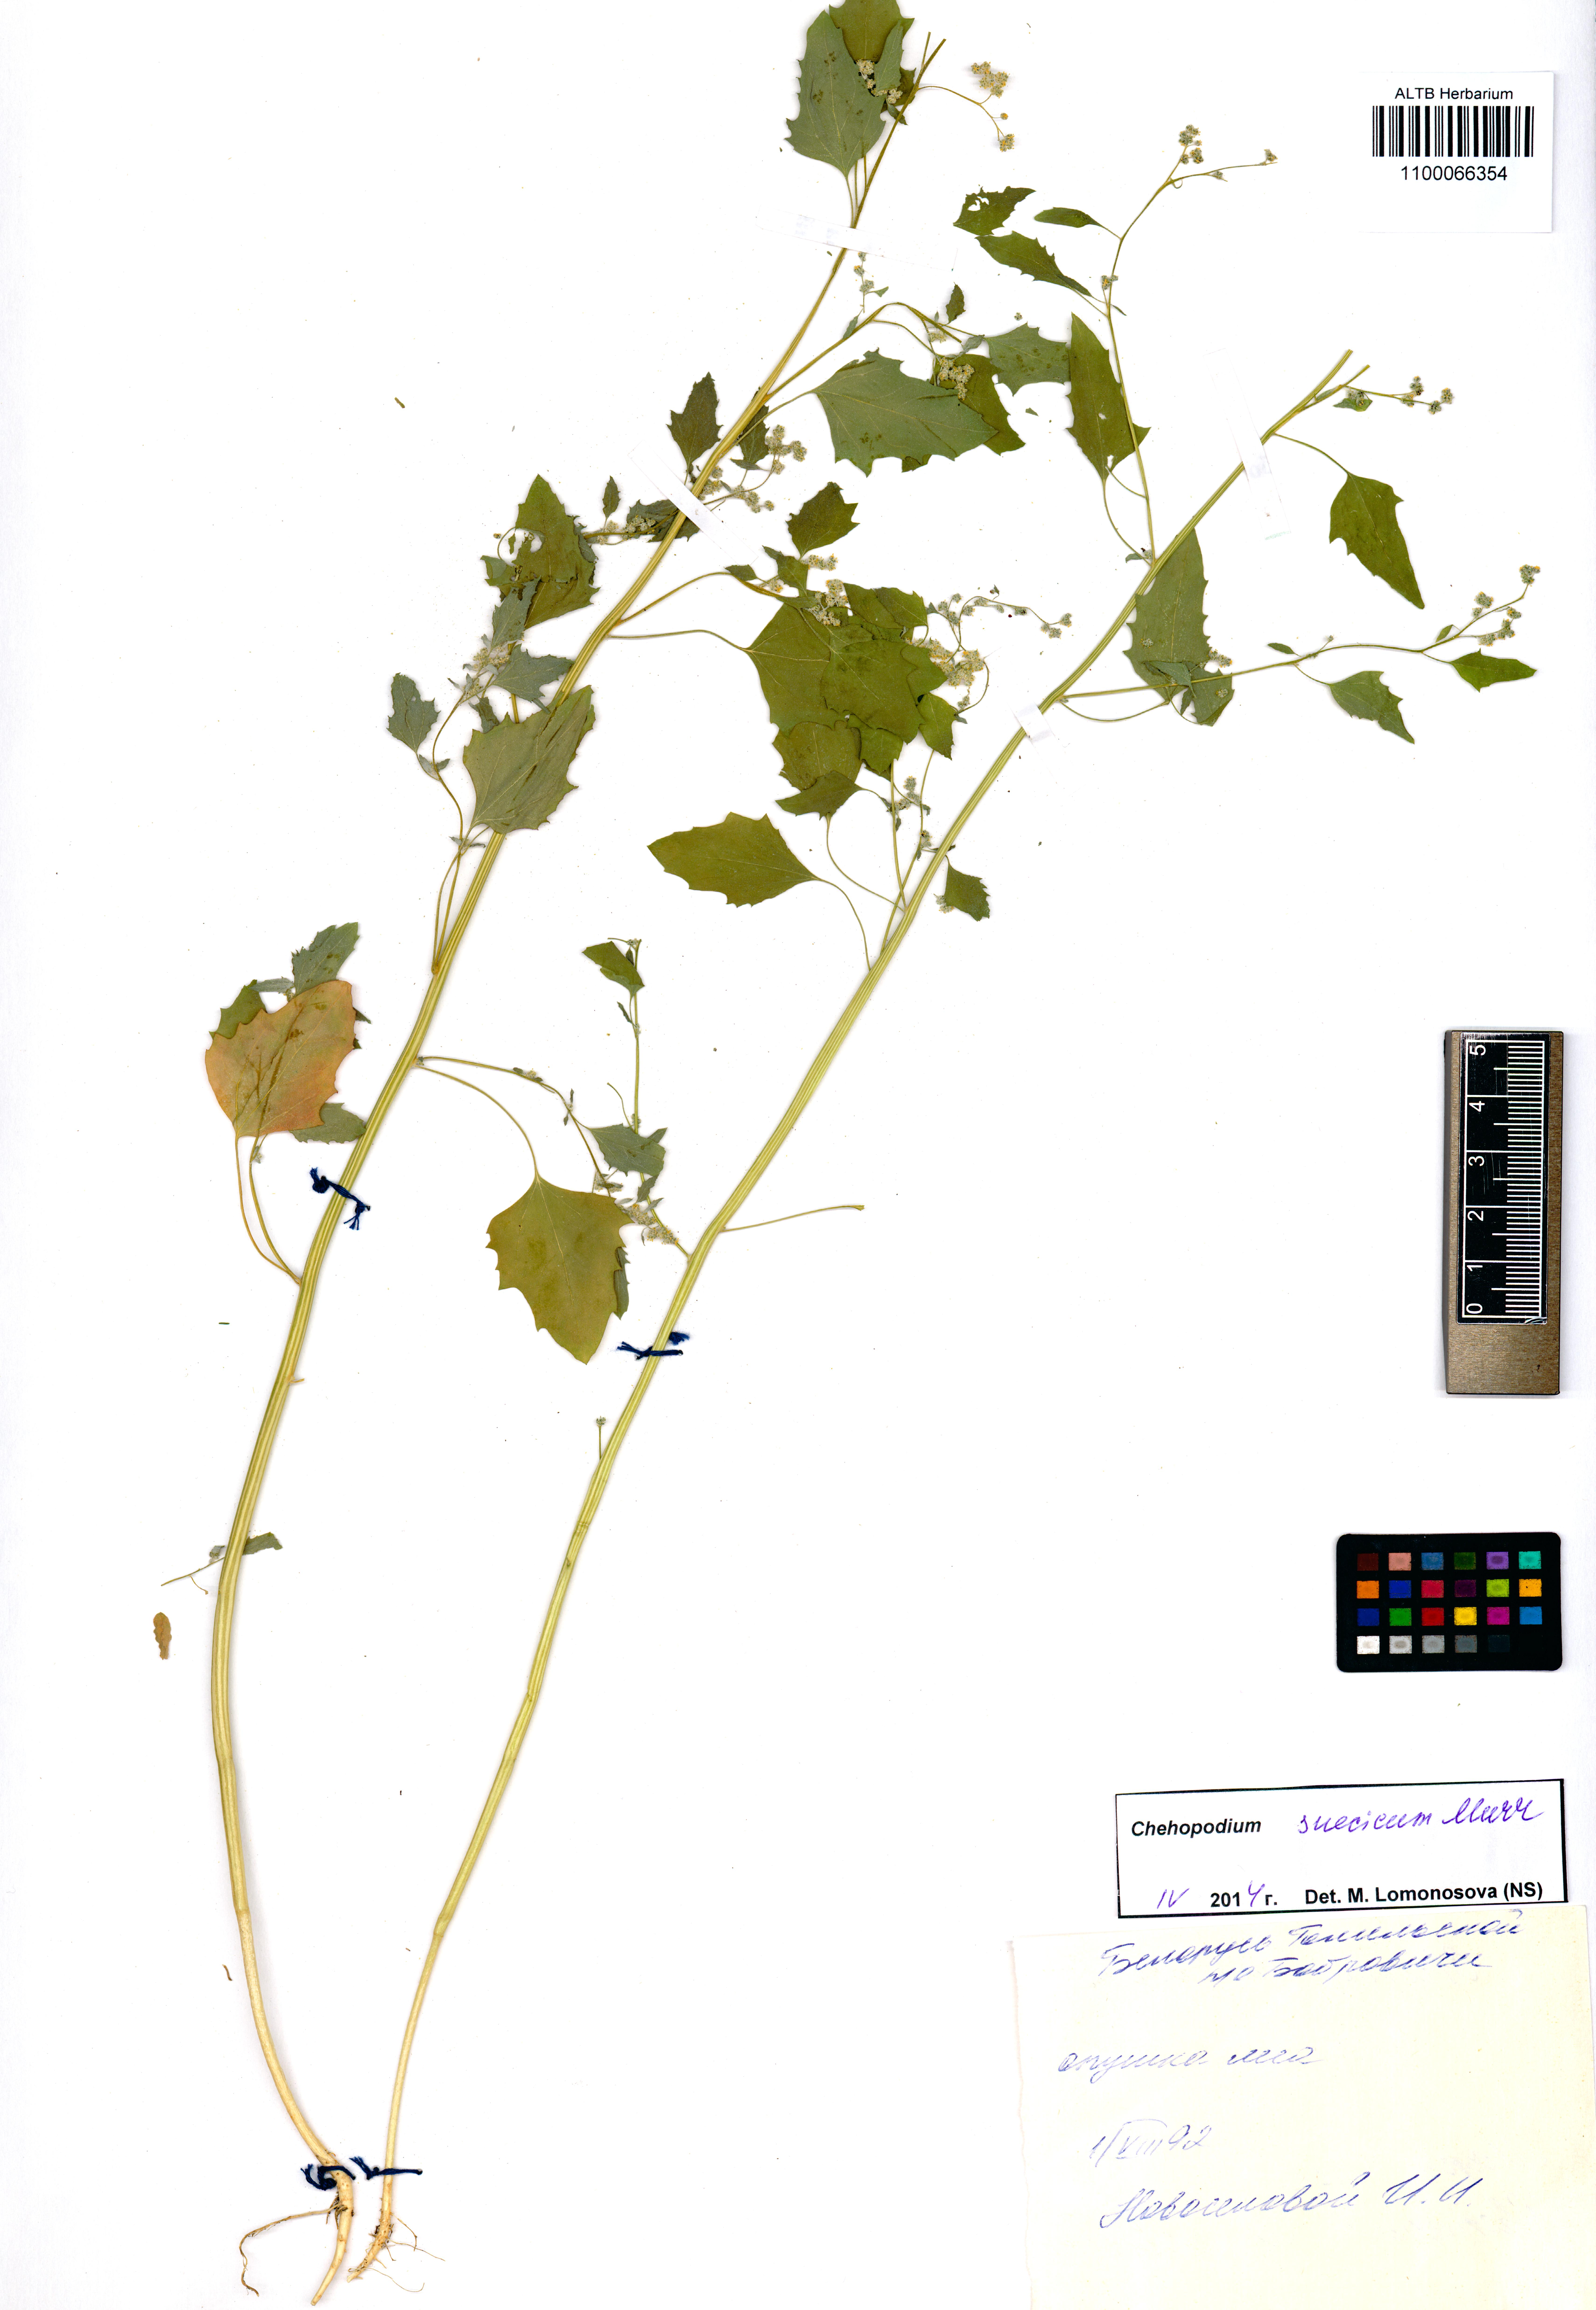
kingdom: Plantae
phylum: Tracheophyta
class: Magnoliopsida
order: Caryophyllales
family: Amaranthaceae
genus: Chenopodium
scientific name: Chenopodium album
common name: Fat-hen
